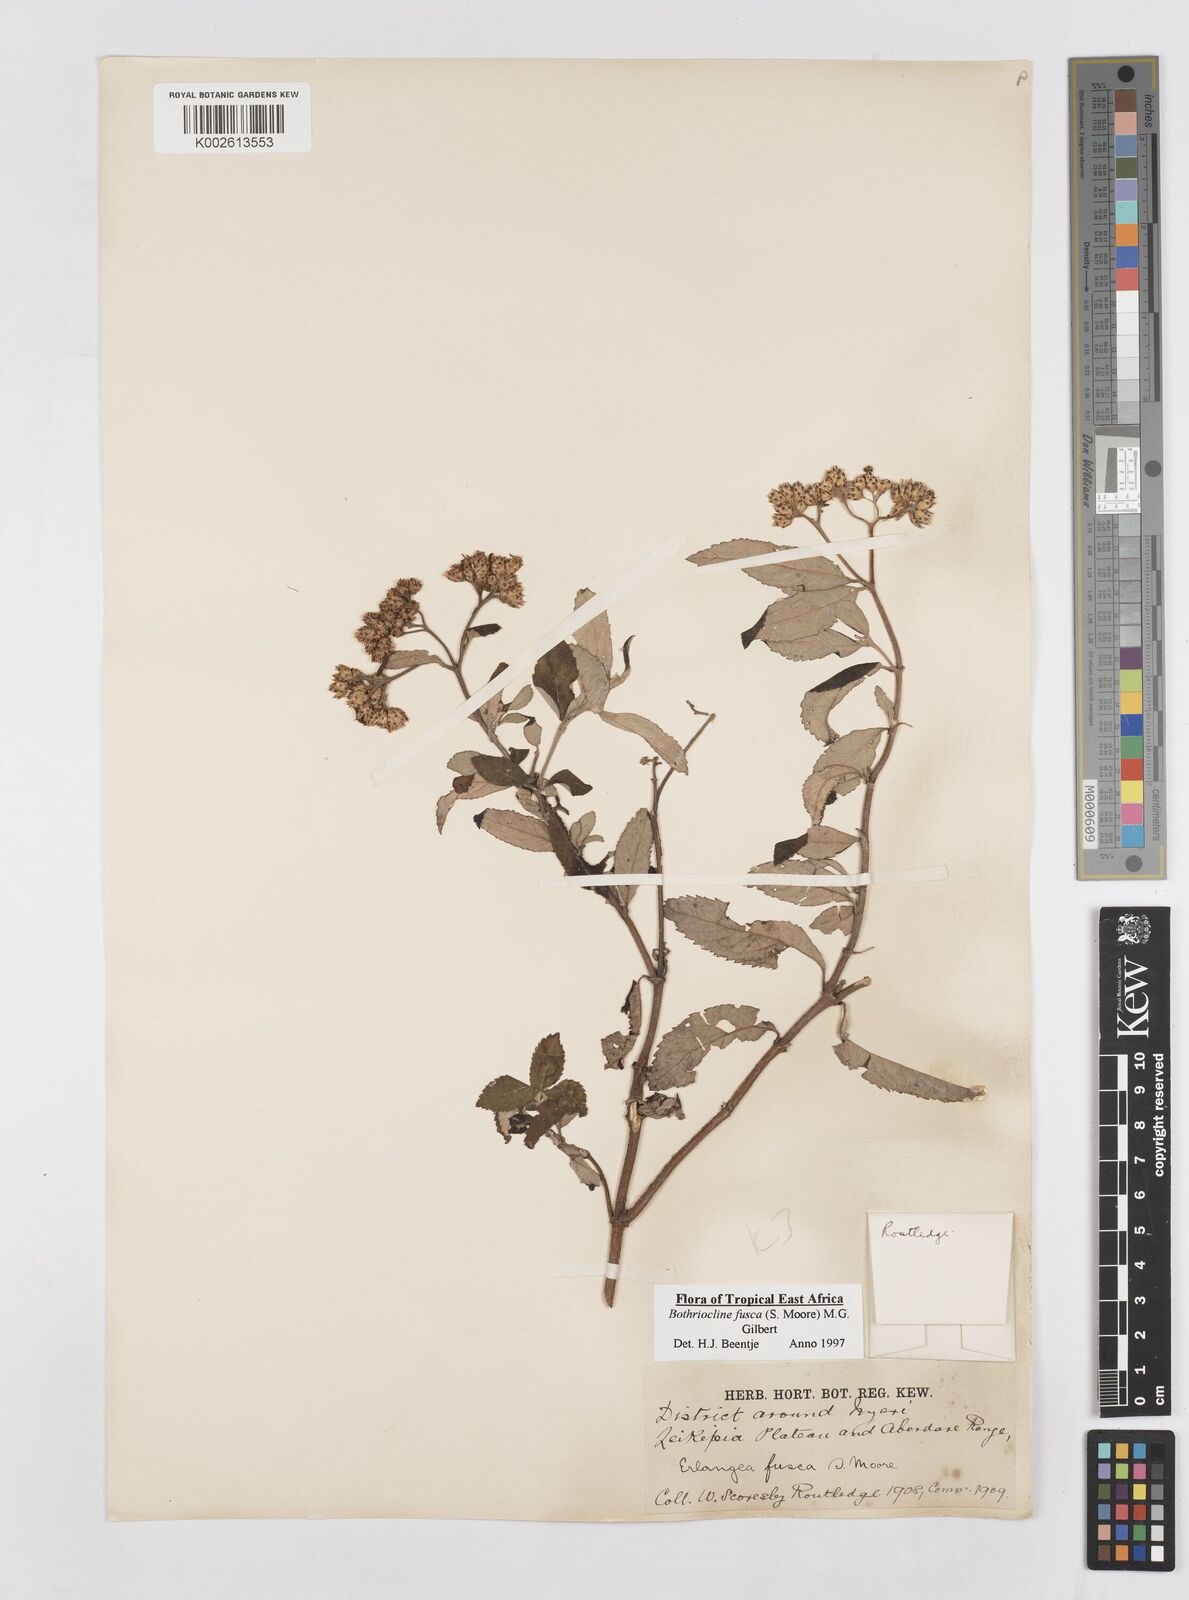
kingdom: Plantae
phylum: Tracheophyta
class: Magnoliopsida
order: Asterales
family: Asteraceae
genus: Bothriocline
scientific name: Bothriocline fusca
